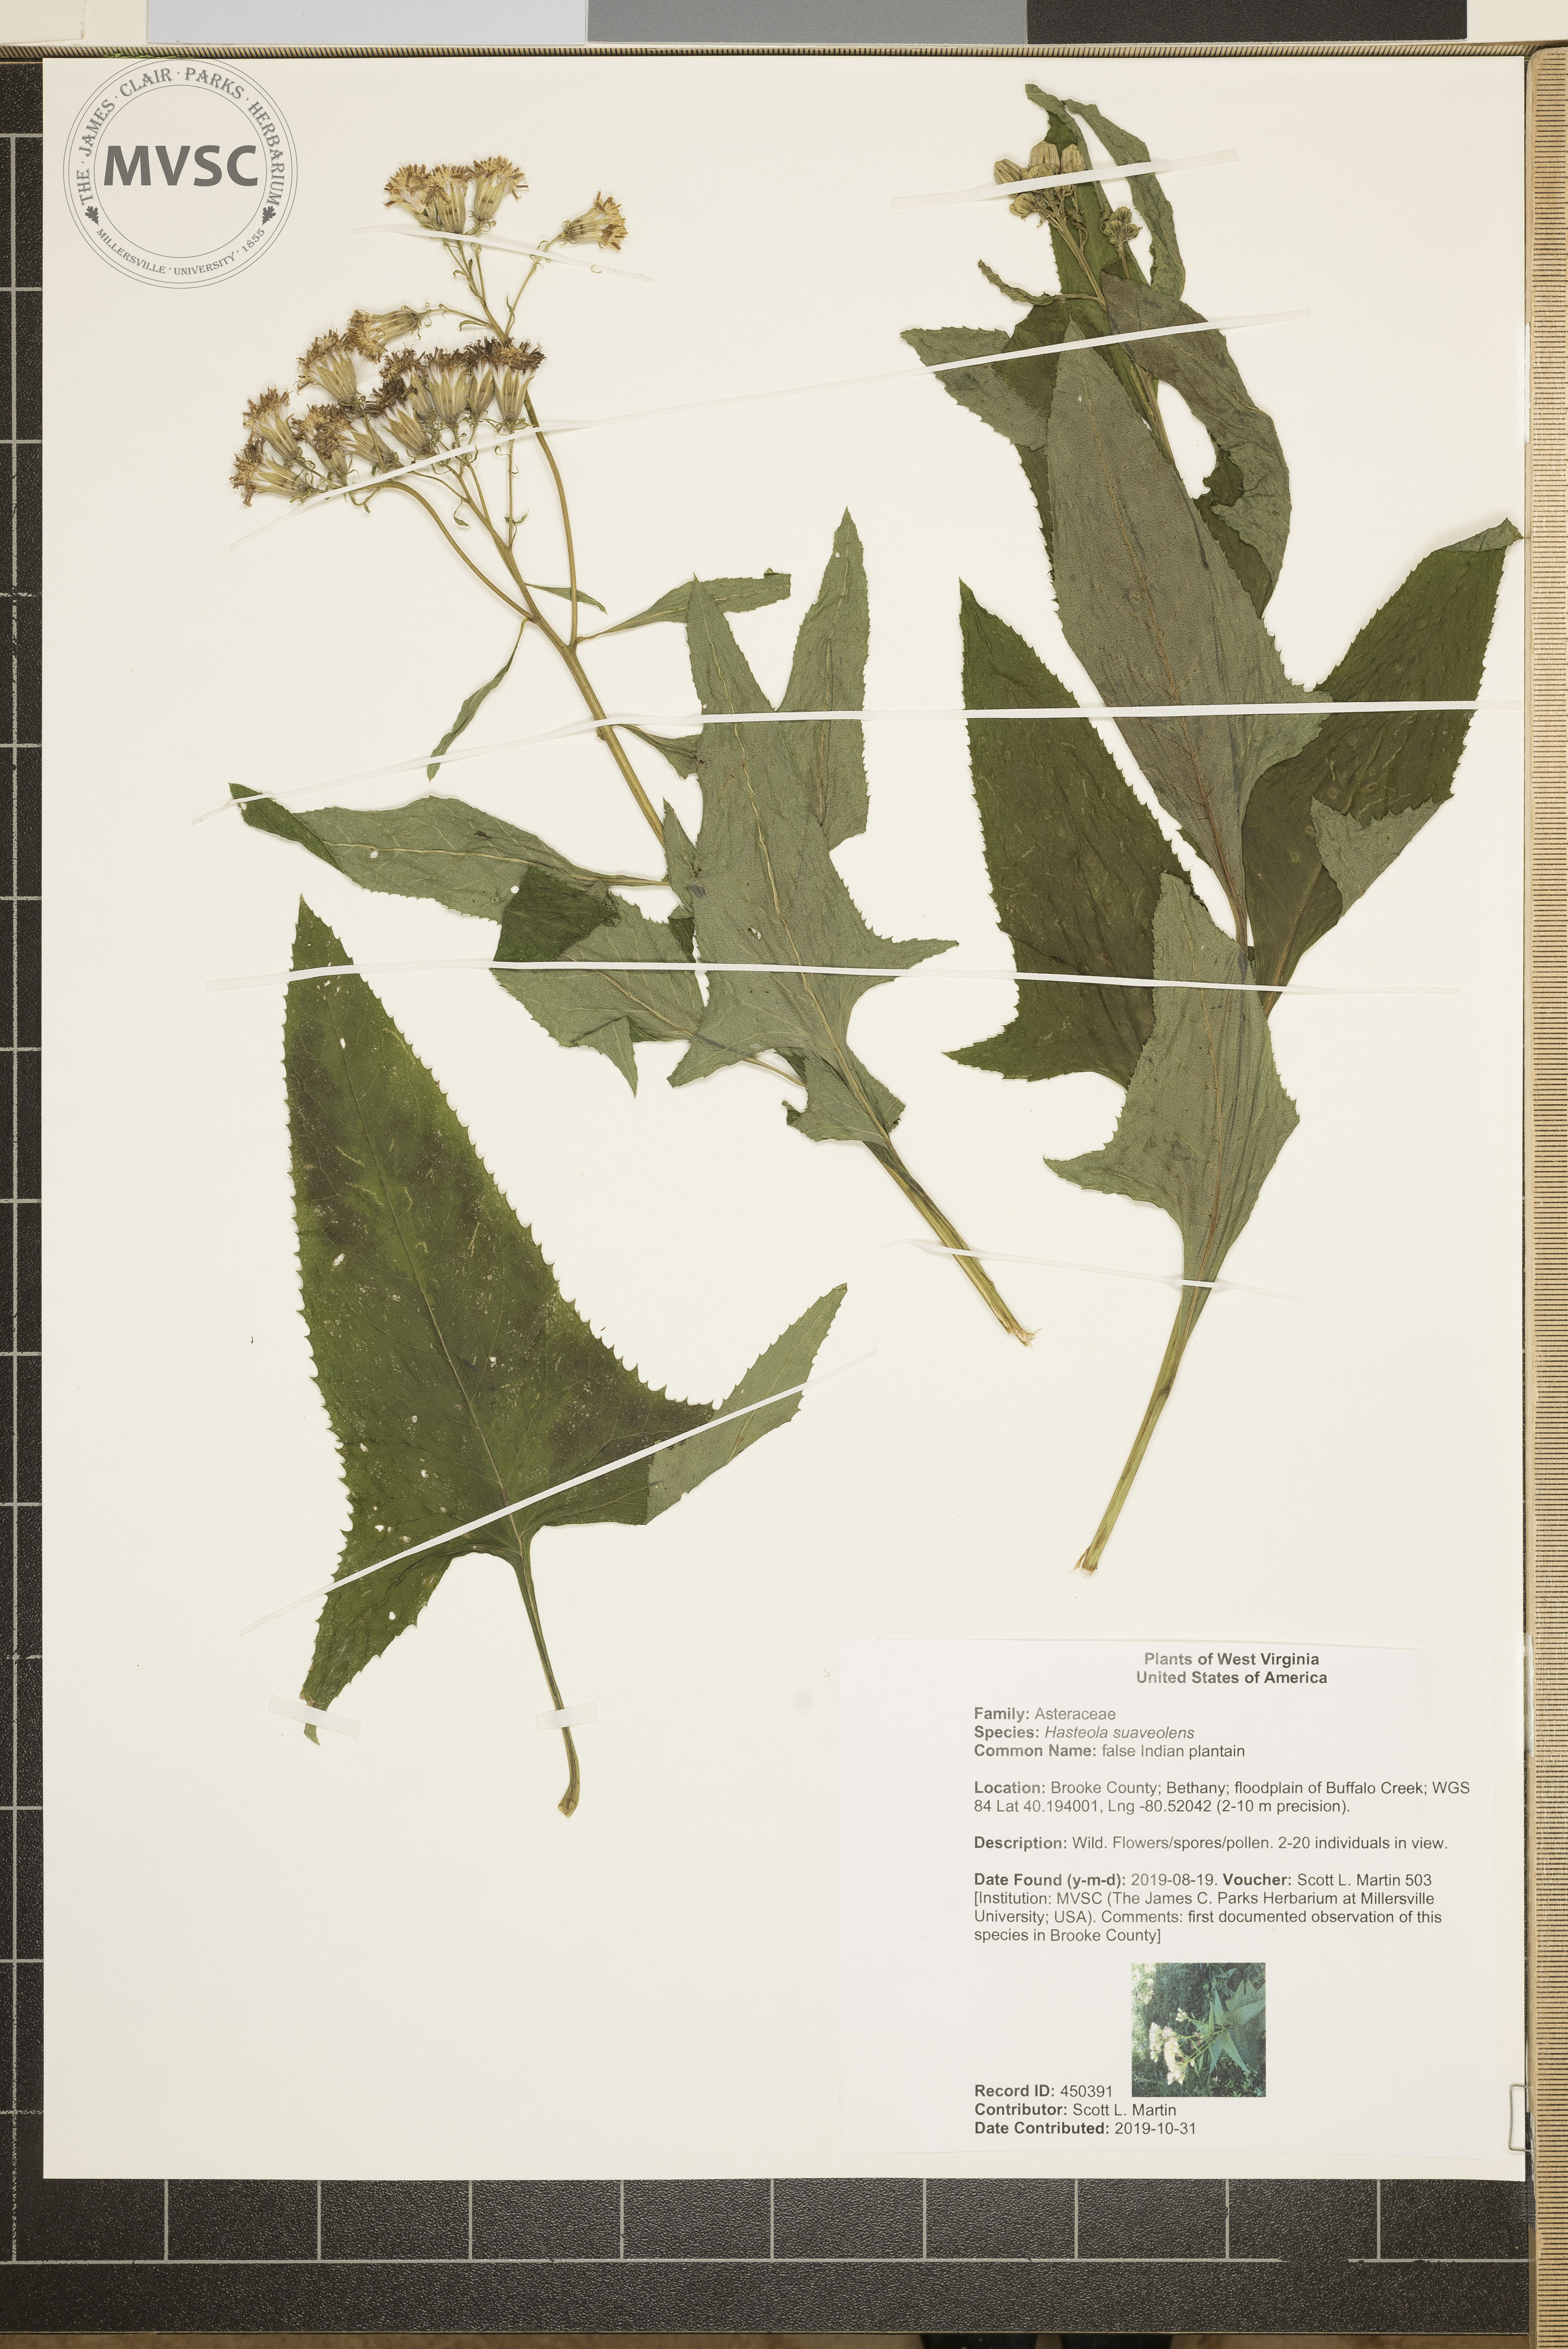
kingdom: Plantae
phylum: Tracheophyta
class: Magnoliopsida
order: Asterales
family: Asteraceae
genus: Hasteola
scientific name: Hasteola suaveolens
